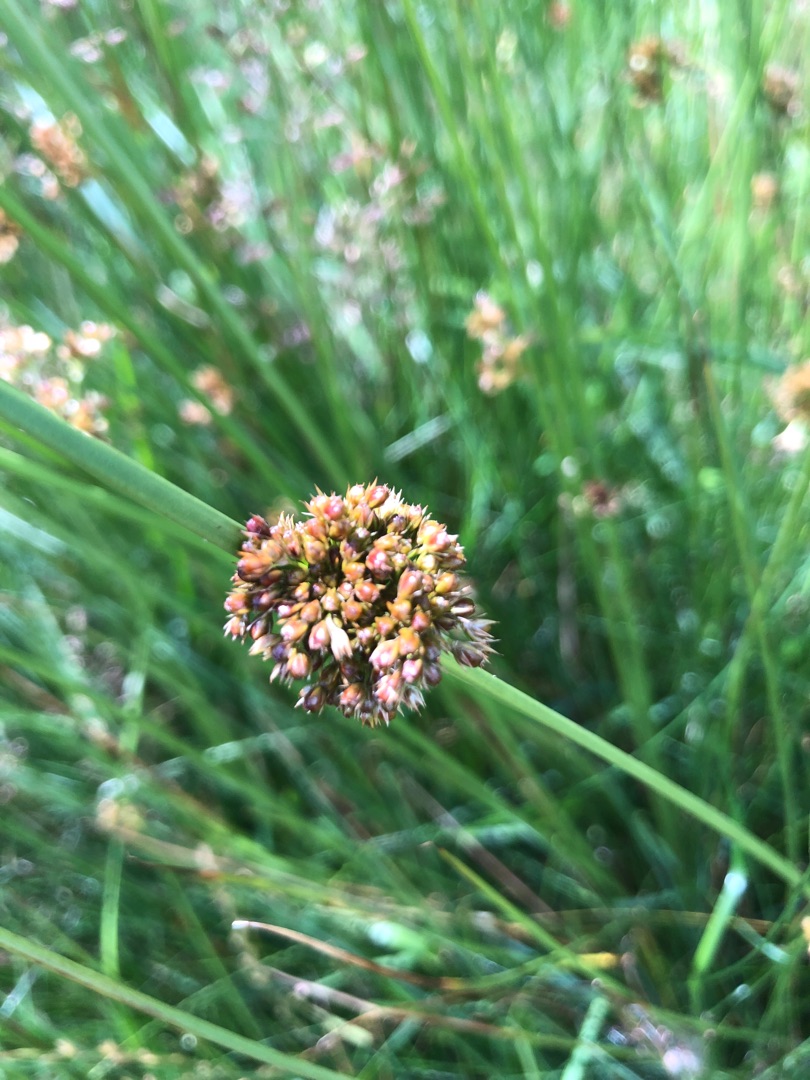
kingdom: Plantae
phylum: Tracheophyta
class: Liliopsida
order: Poales
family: Juncaceae
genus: Juncus
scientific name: Juncus effusus
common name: Lyse-siv
